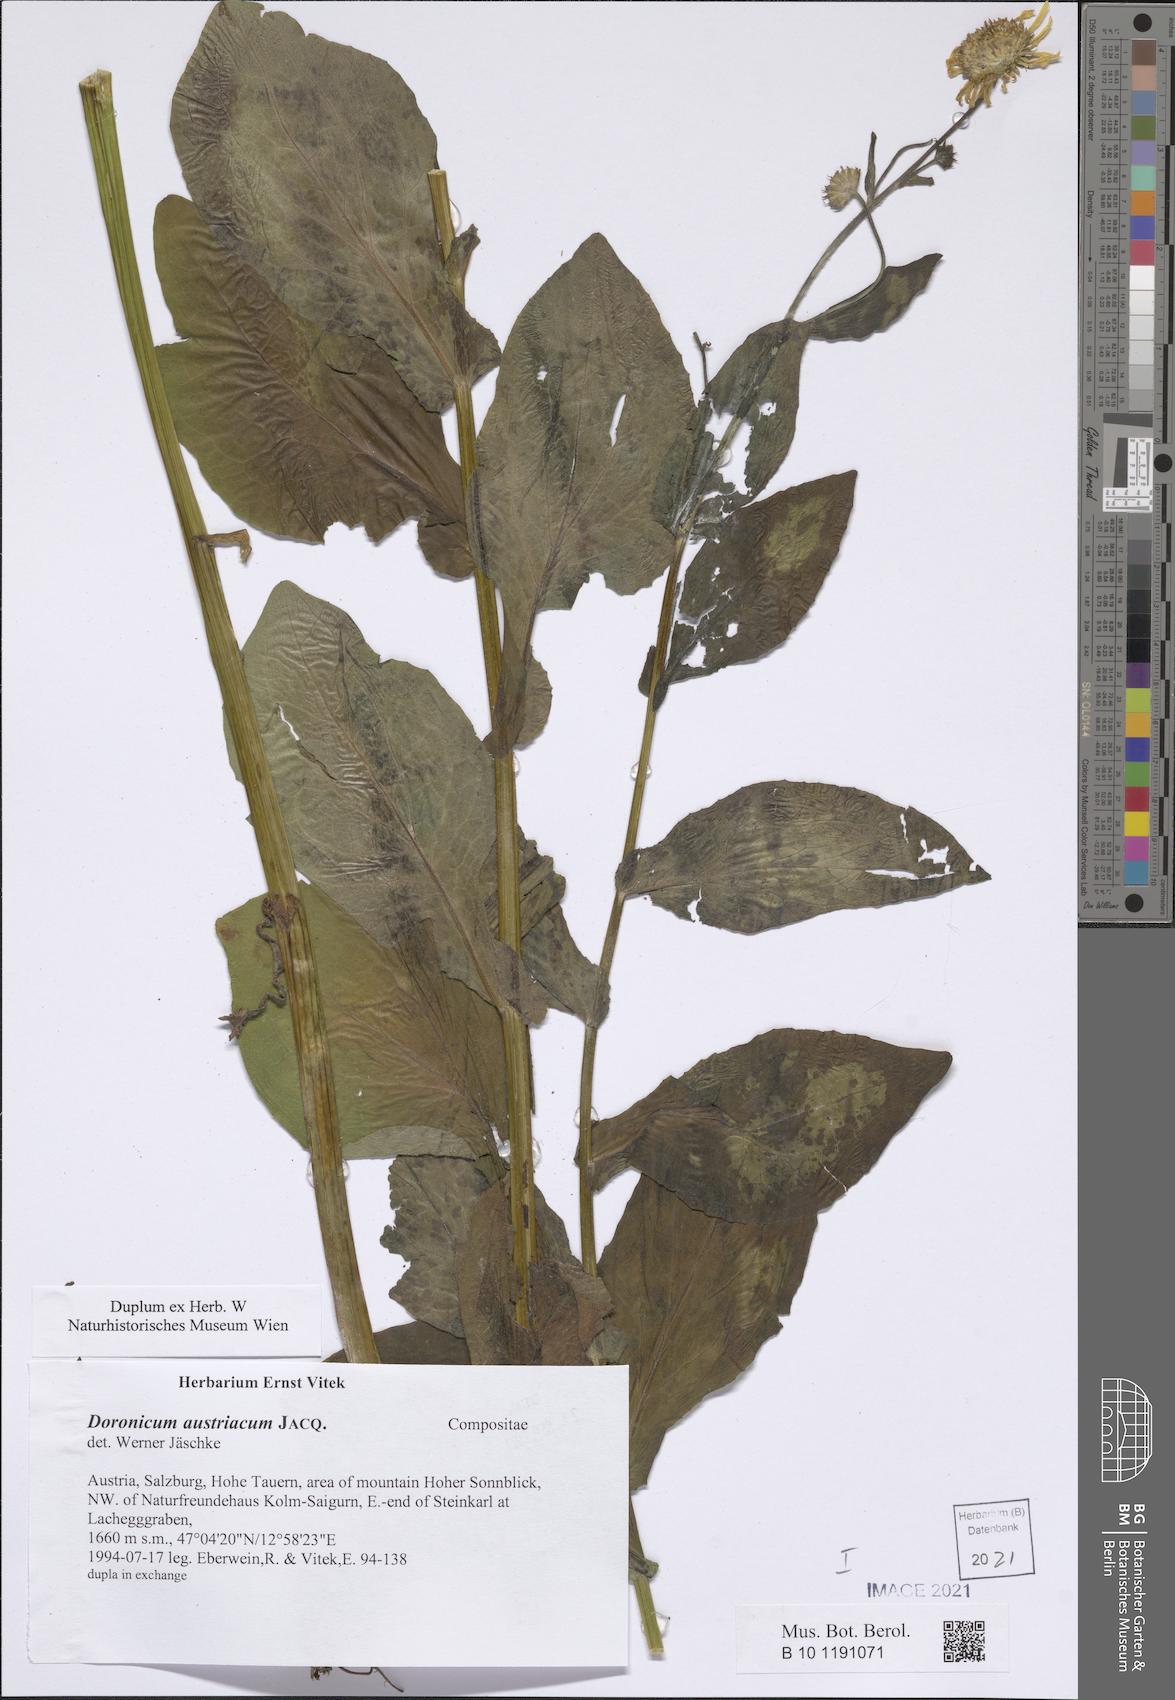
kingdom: Plantae
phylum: Tracheophyta
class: Magnoliopsida
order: Asterales
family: Asteraceae
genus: Doronicum
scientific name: Doronicum austriacum
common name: Austrian leopard's-bane
